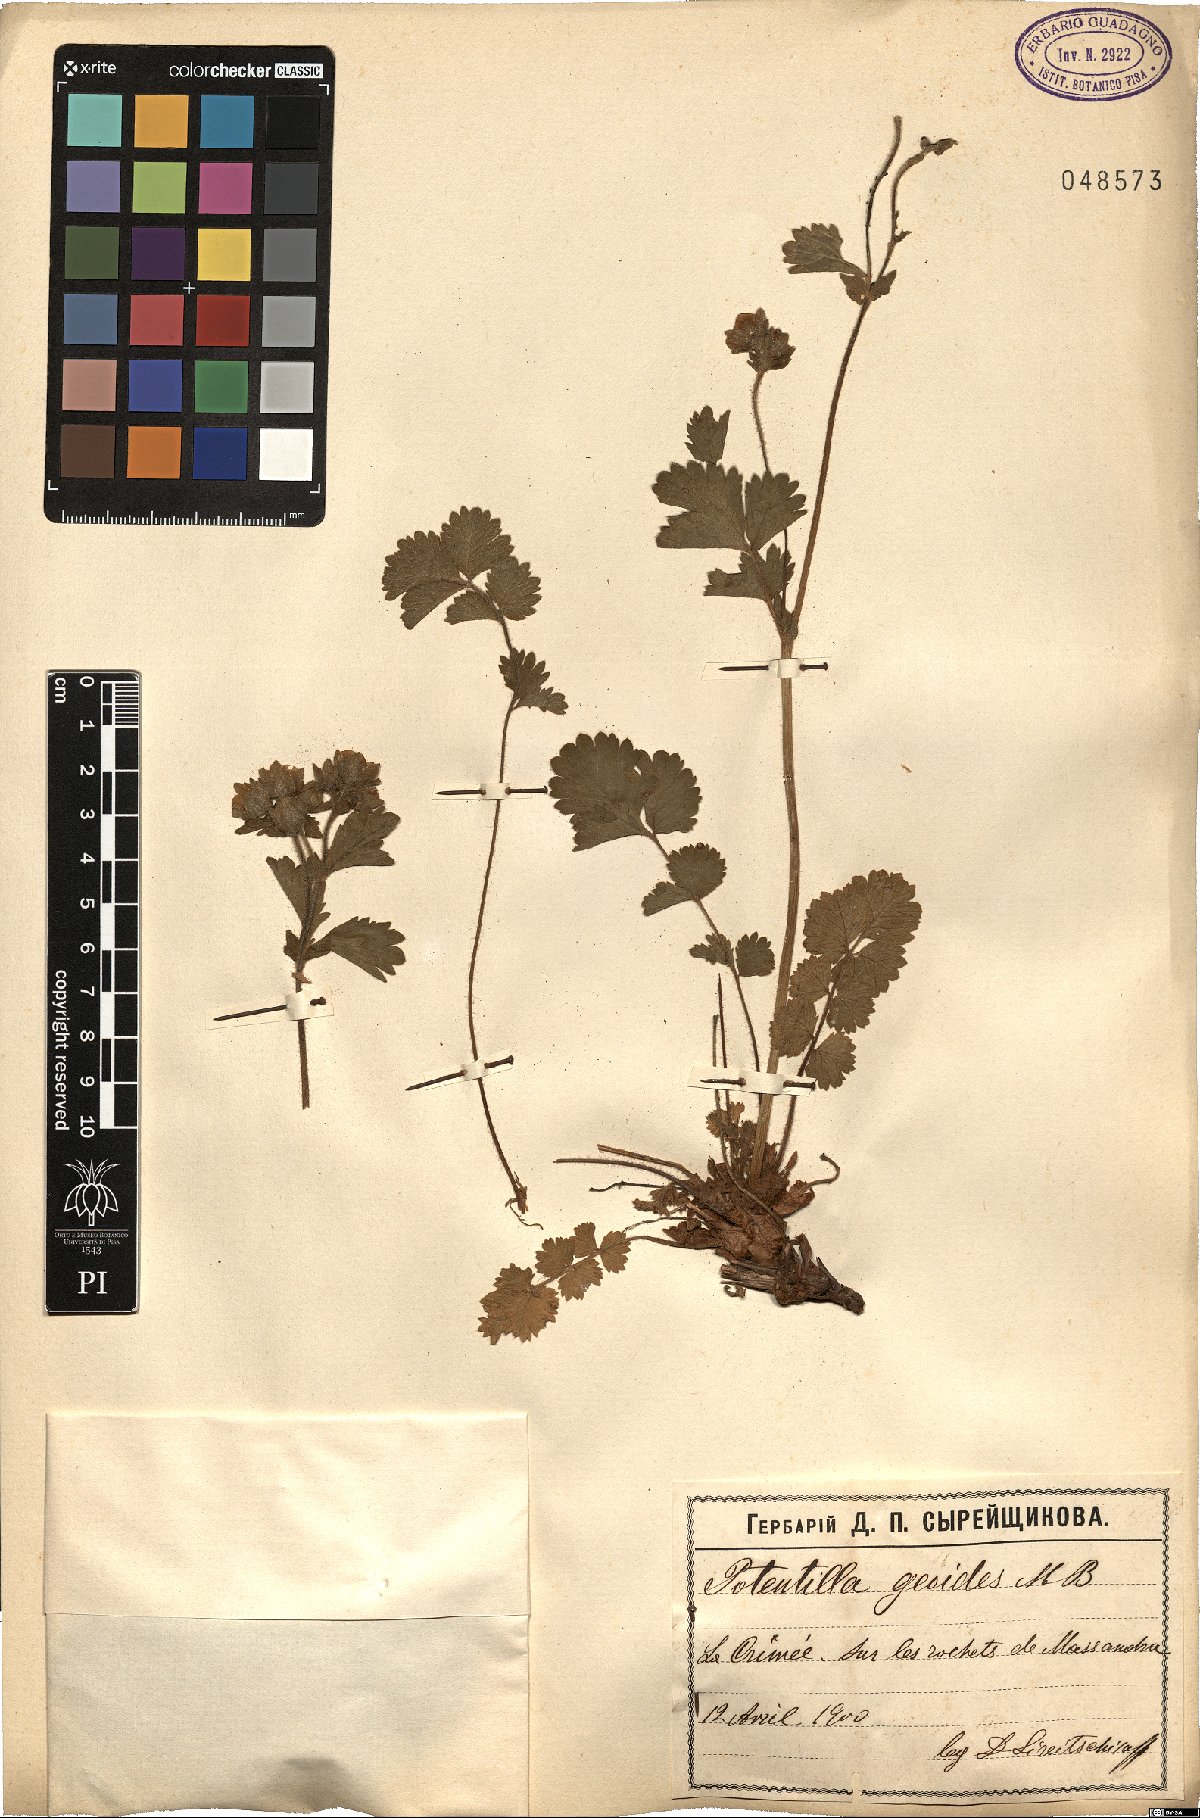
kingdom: Plantae
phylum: Tracheophyta
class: Magnoliopsida
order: Rosales
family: Rosaceae
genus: Drymocallis
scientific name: Drymocallis geoides
